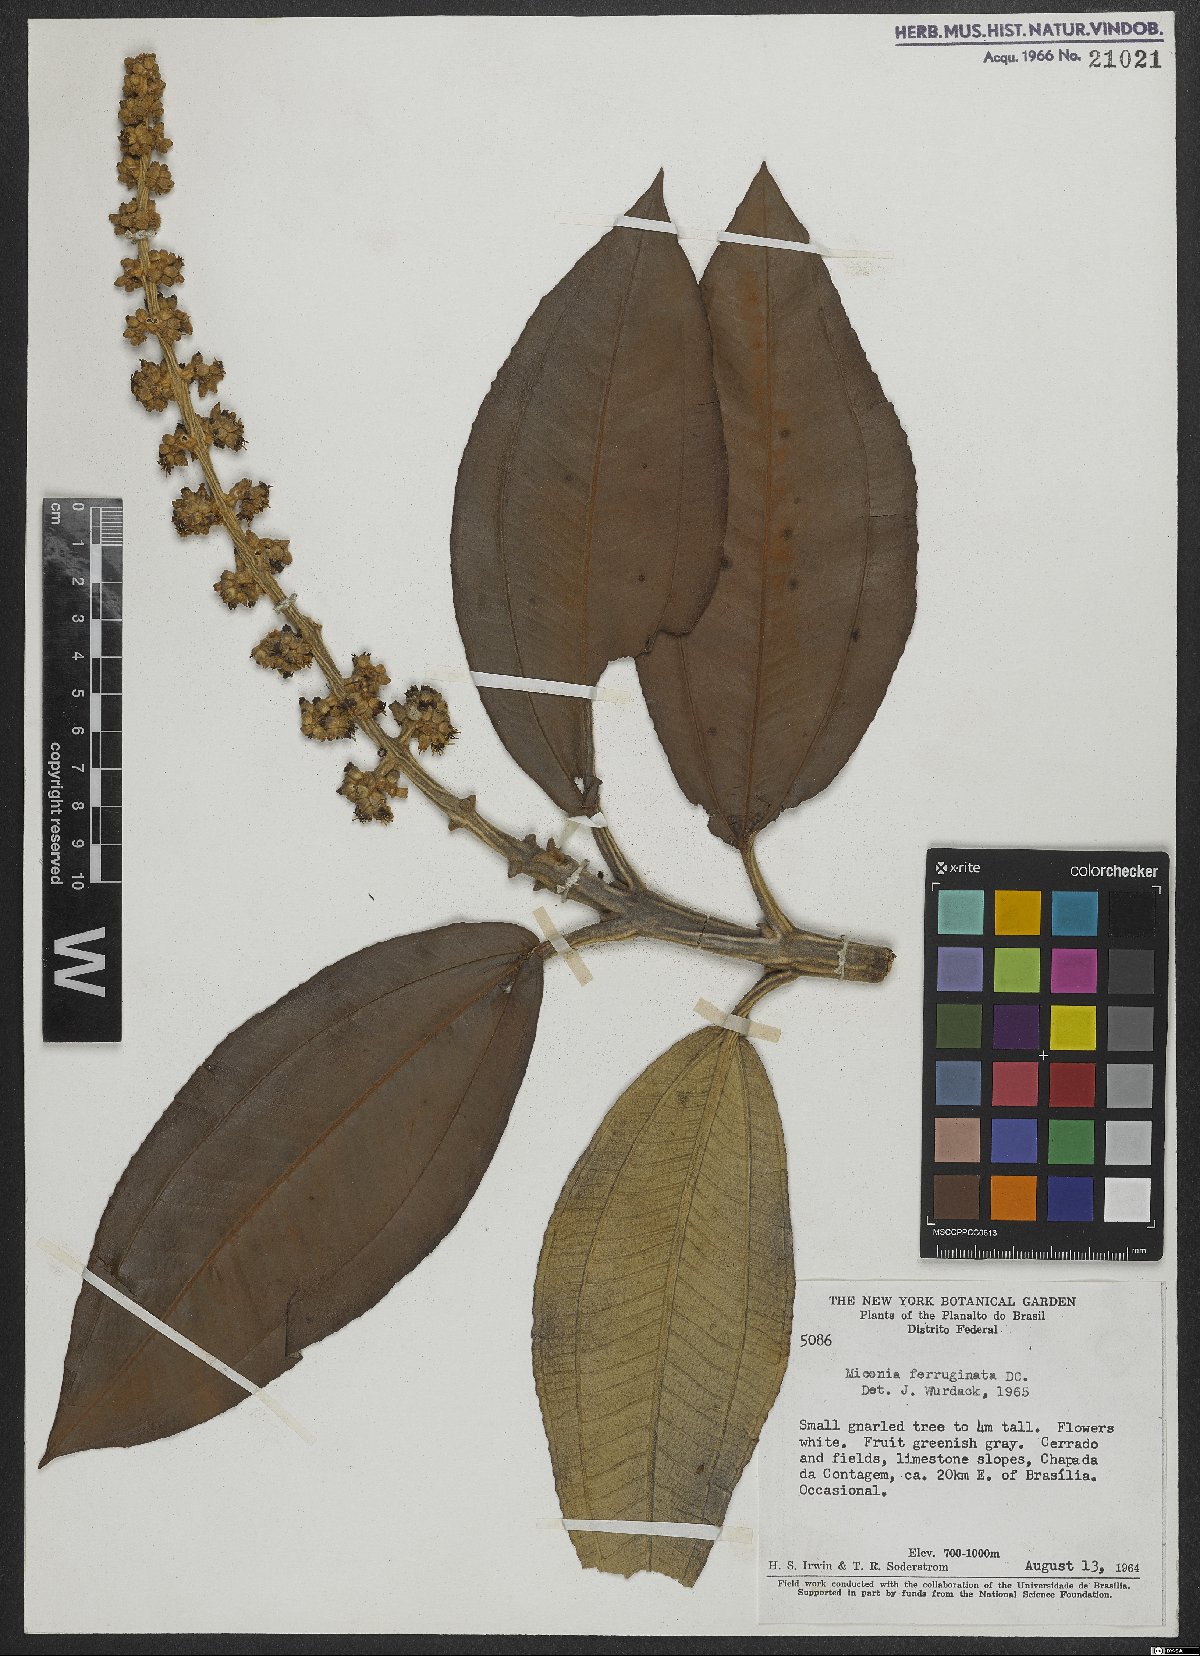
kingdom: Plantae
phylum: Tracheophyta
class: Magnoliopsida
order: Myrtales
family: Melastomataceae
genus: Miconia
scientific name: Miconia ferruginata
